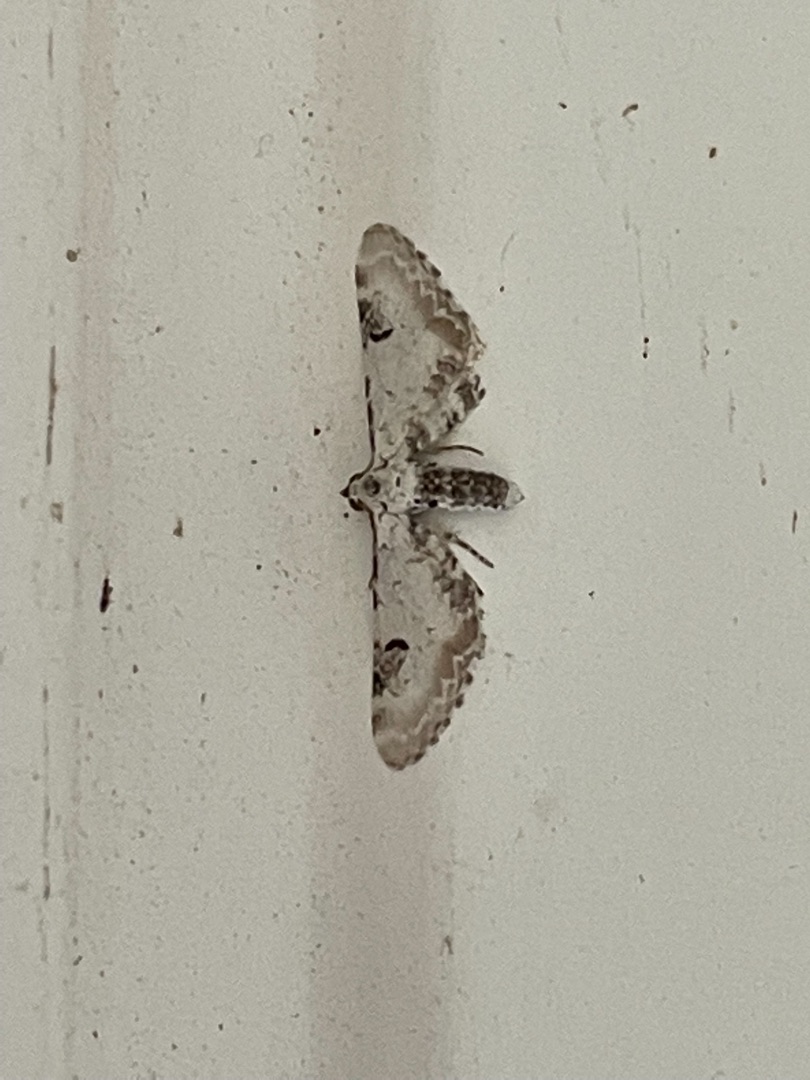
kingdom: Animalia
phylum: Arthropoda
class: Insecta
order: Lepidoptera
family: Geometridae
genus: Eupithecia
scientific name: Eupithecia centaureata
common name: Hvid dværgmåler
